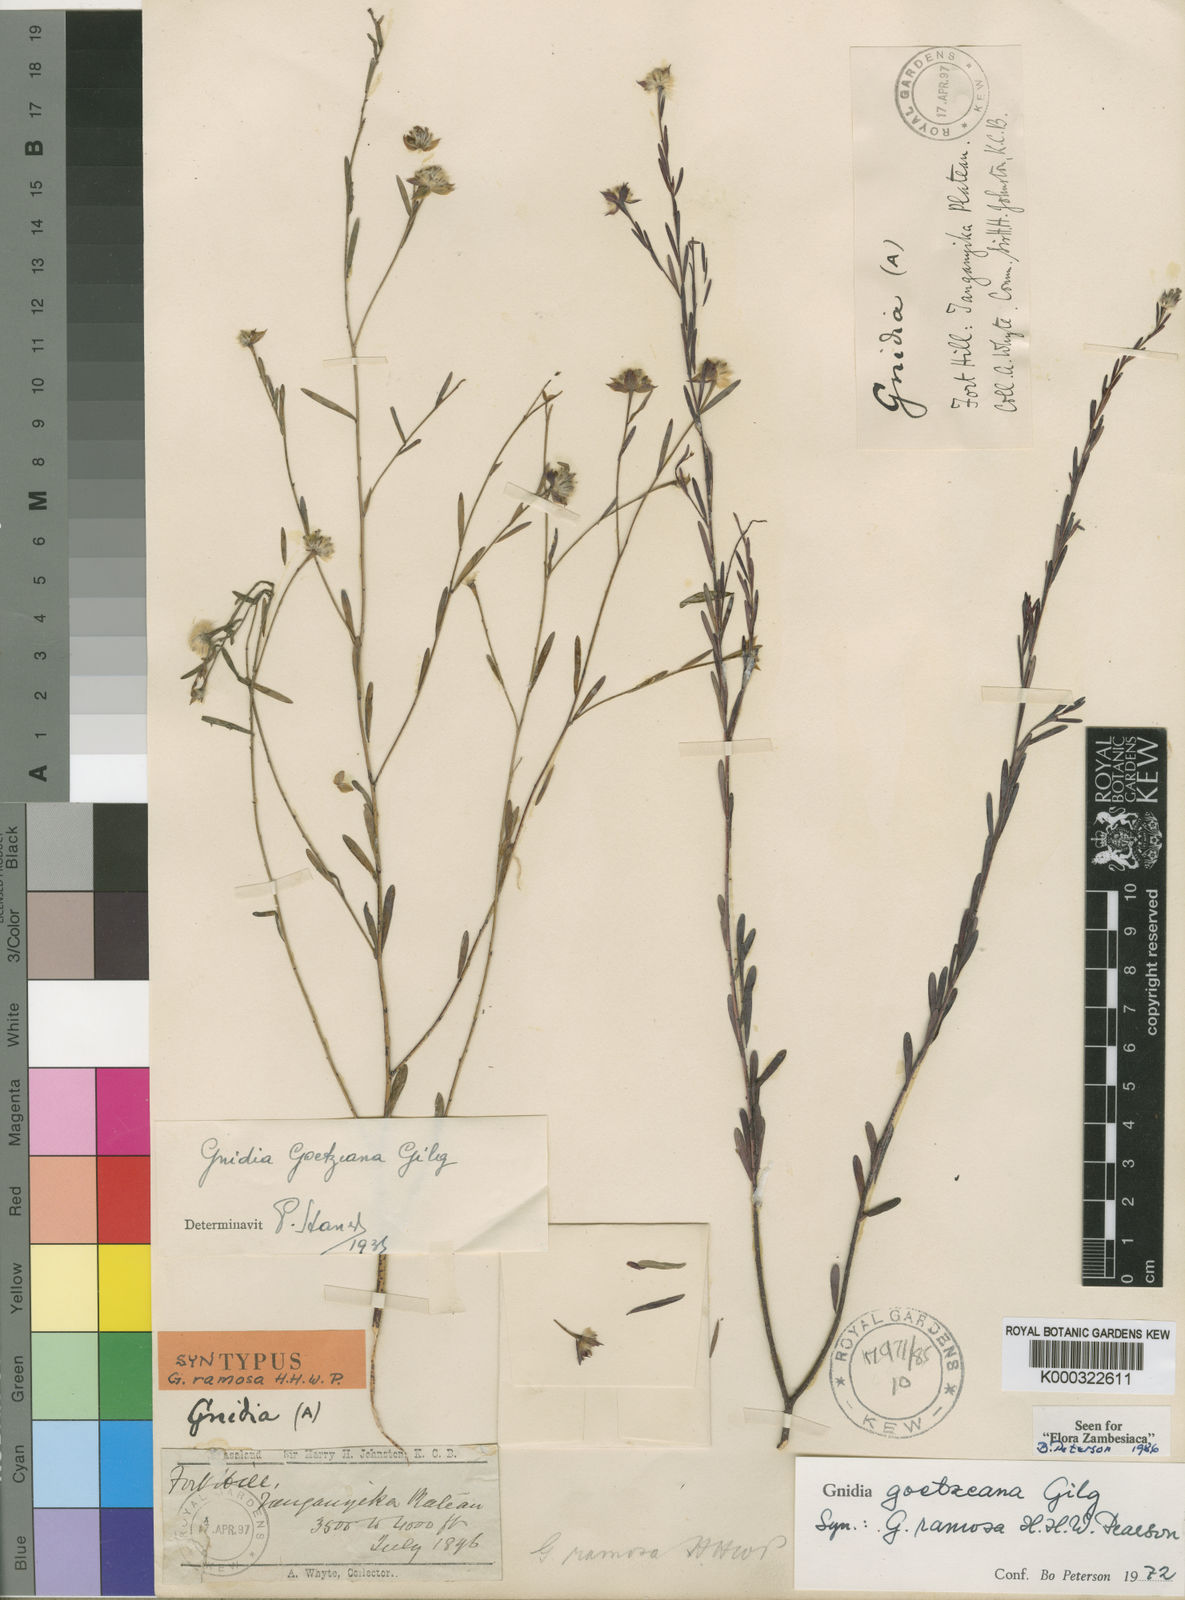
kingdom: Plantae
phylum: Tracheophyta
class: Magnoliopsida
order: Malvales
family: Thymelaeaceae
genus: Gnidia
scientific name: Gnidia goetzeana
